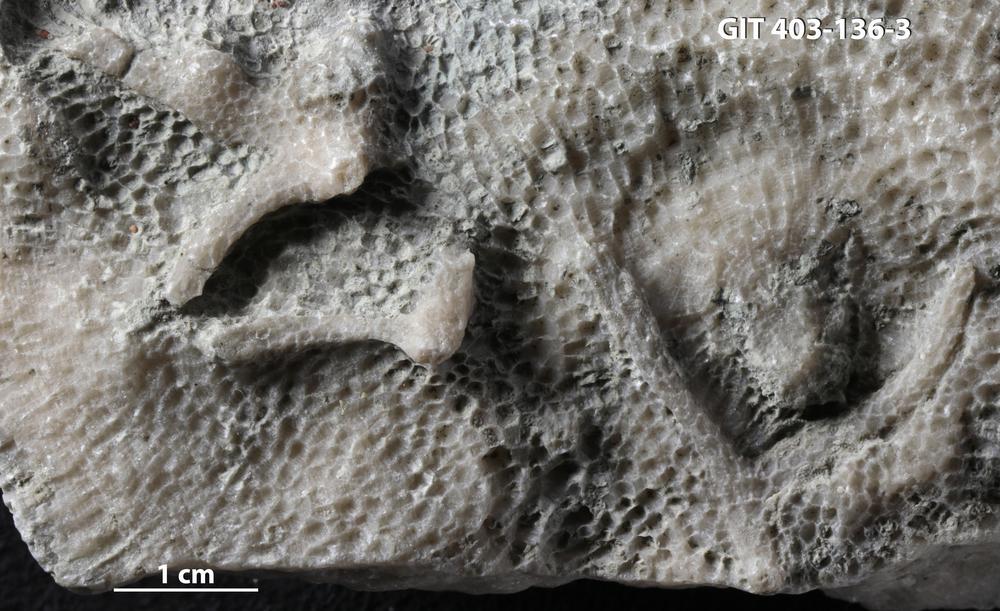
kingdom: Animalia
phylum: Cnidaria
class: Anthozoa
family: Pachyporidae
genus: Parastriatopora
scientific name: Parastriatopora
